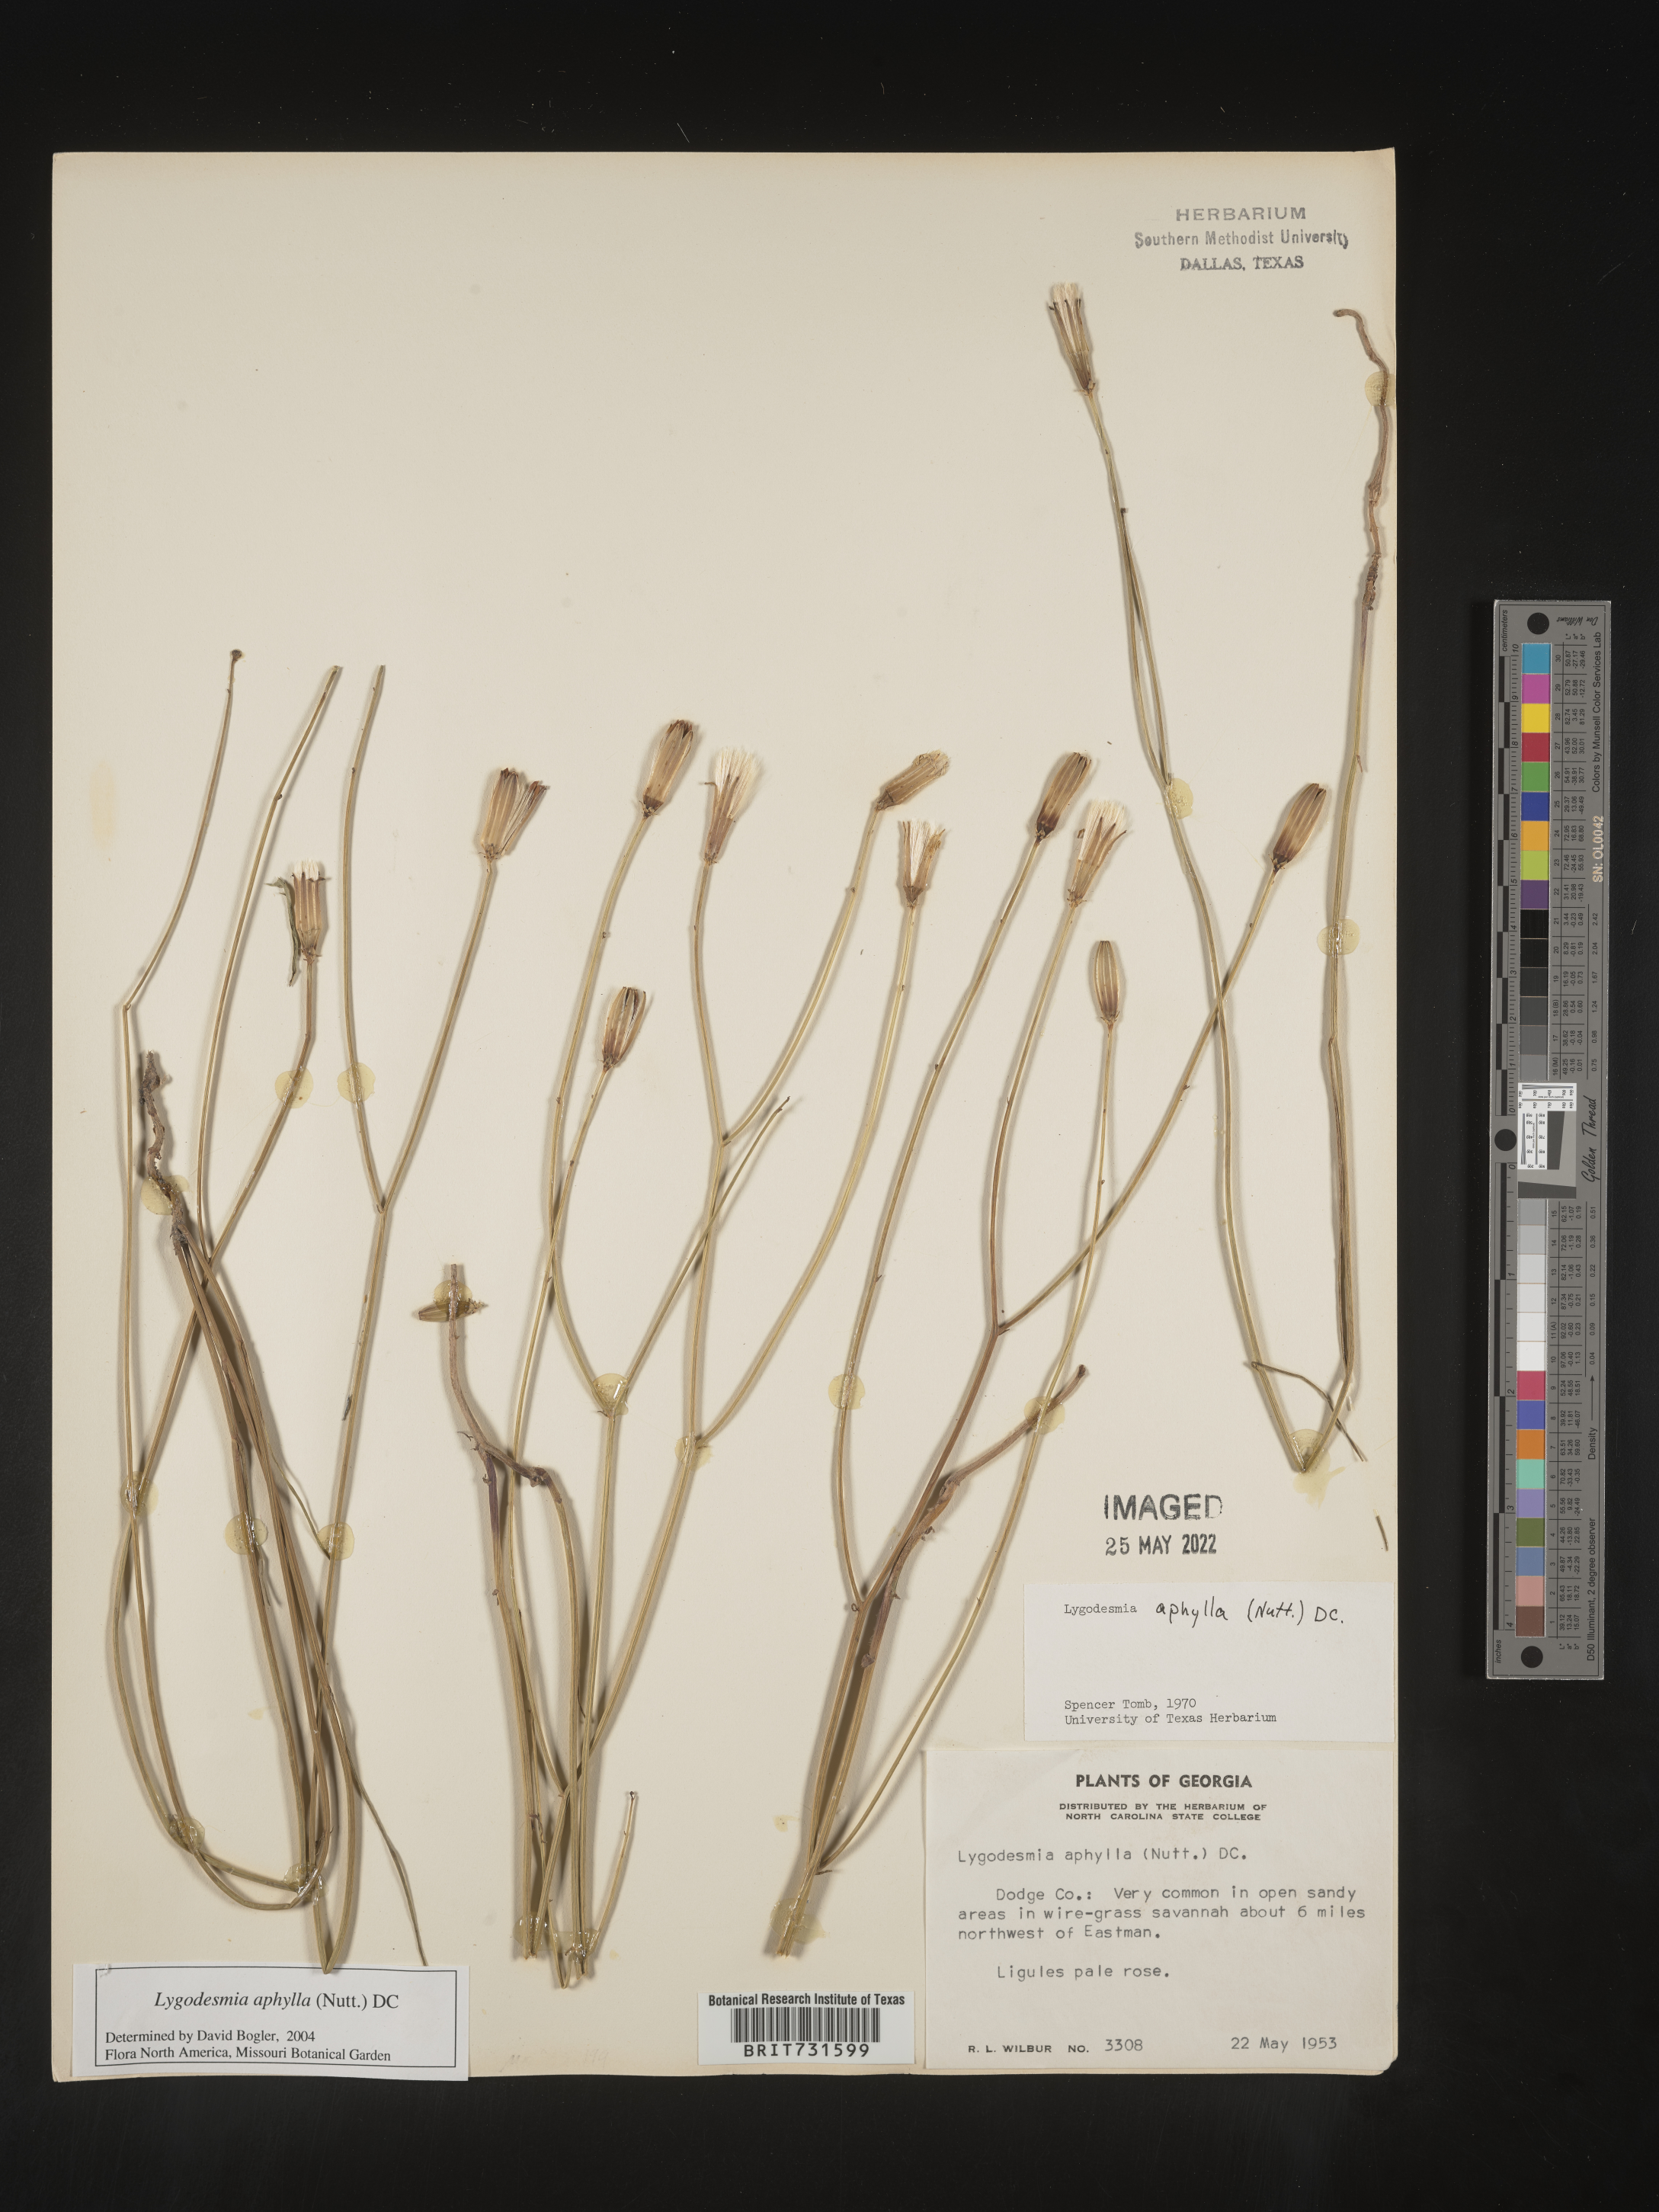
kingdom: Plantae
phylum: Tracheophyta
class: Magnoliopsida
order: Asterales
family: Asteraceae
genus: Lygodesmia
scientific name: Lygodesmia aphylla
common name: Rose-rush
